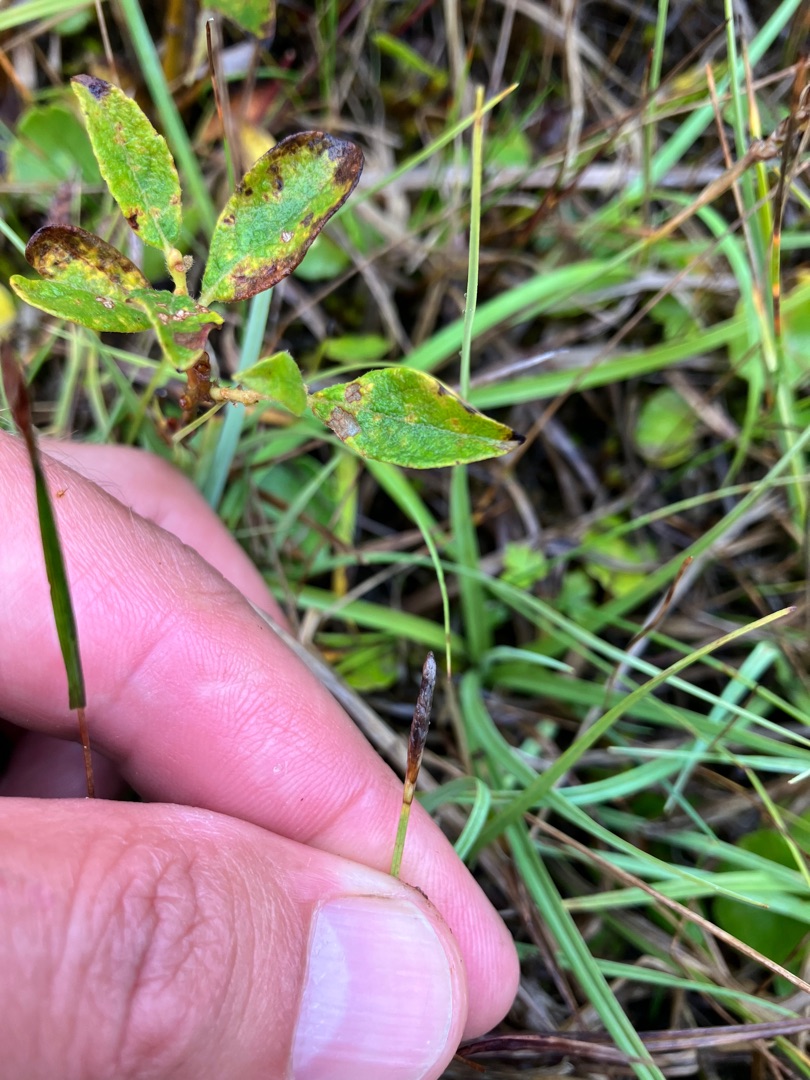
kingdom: Plantae
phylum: Tracheophyta
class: Liliopsida
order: Poales
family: Cyperaceae
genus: Carex
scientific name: Carex pulicaris
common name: Loppe-star
